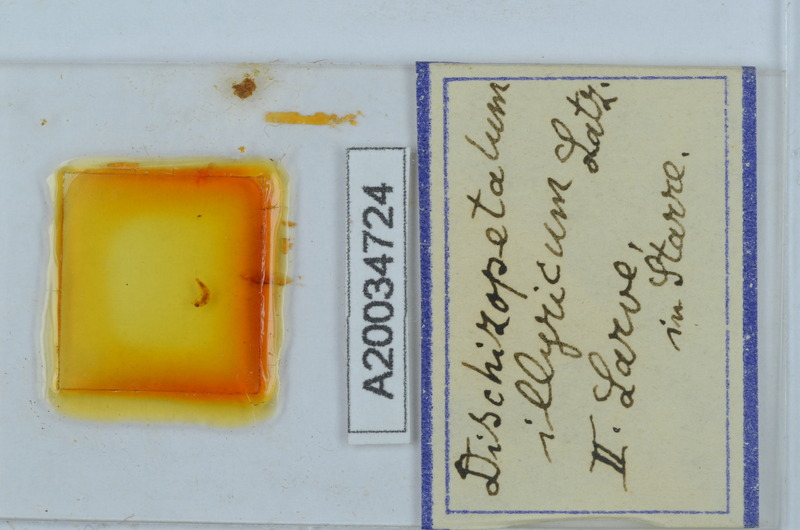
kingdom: Animalia
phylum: Arthropoda
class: Diplopoda
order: Callipodida
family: Schizopetalidae
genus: Dischizopetalum
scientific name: Dischizopetalum illyricum
